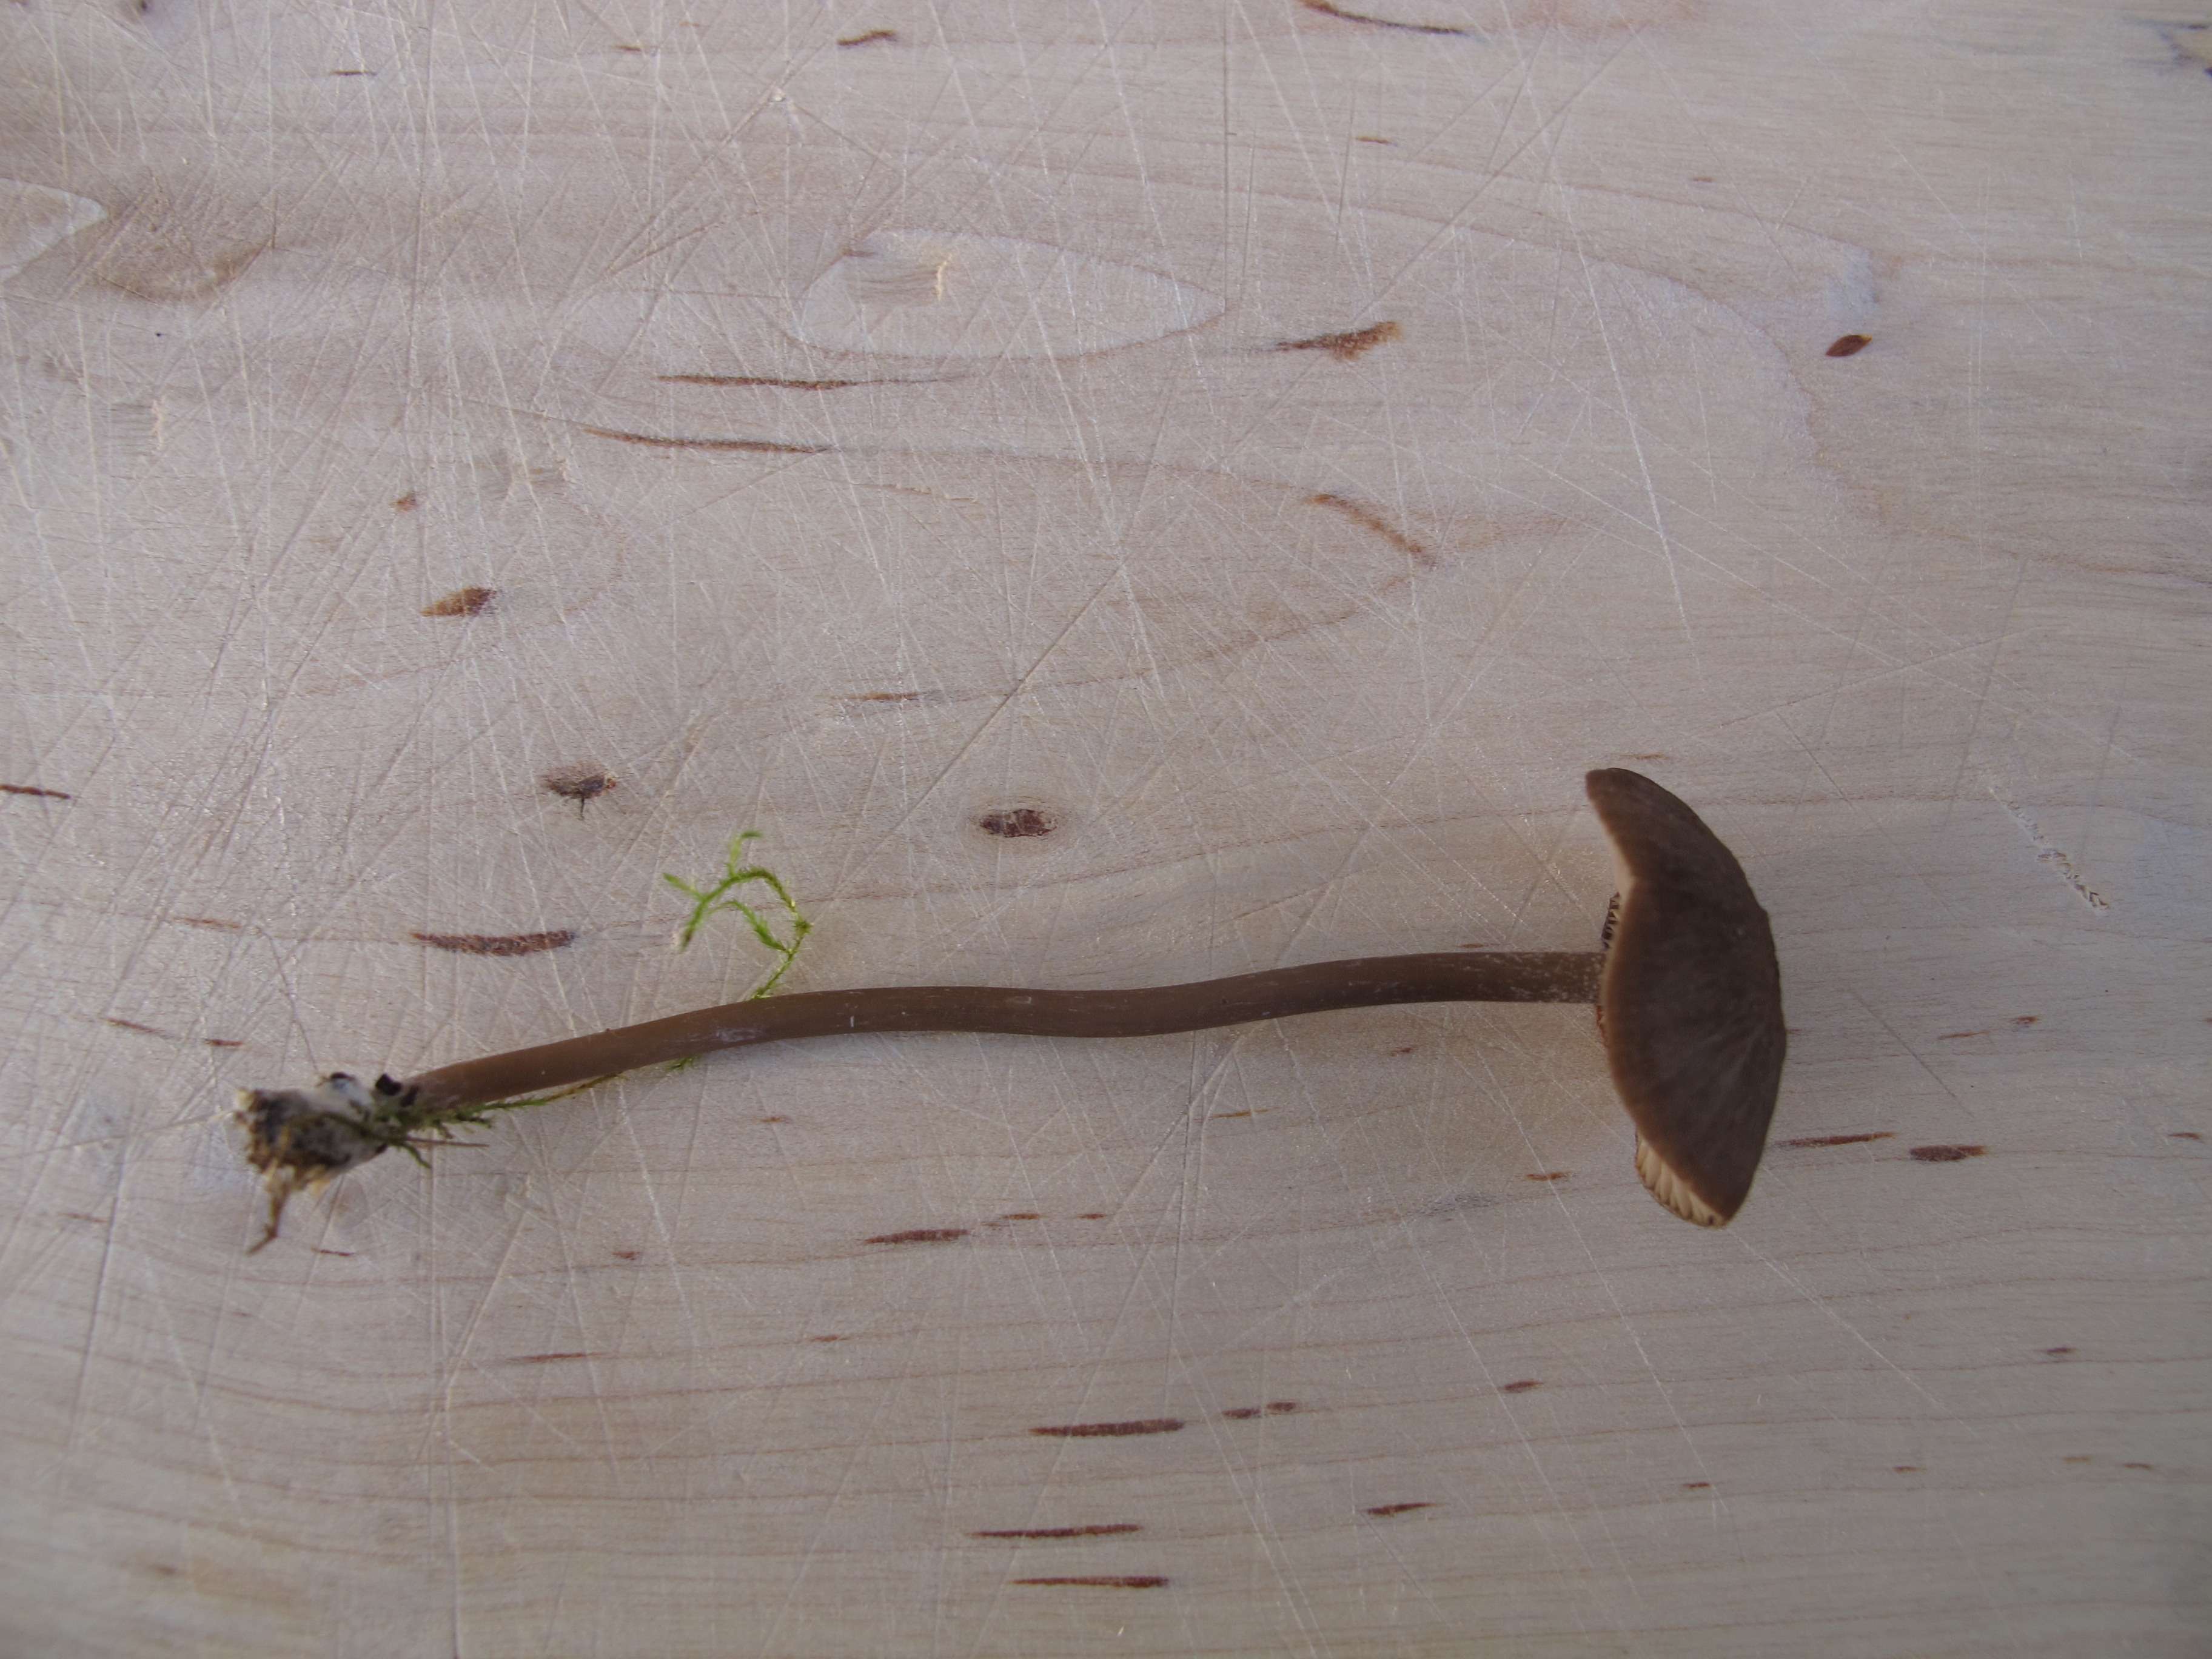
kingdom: Fungi
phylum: Basidiomycota
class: Agaricomycetes
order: Agaricales
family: Entolomataceae
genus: Entoloma
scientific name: Entoloma clandestinum
